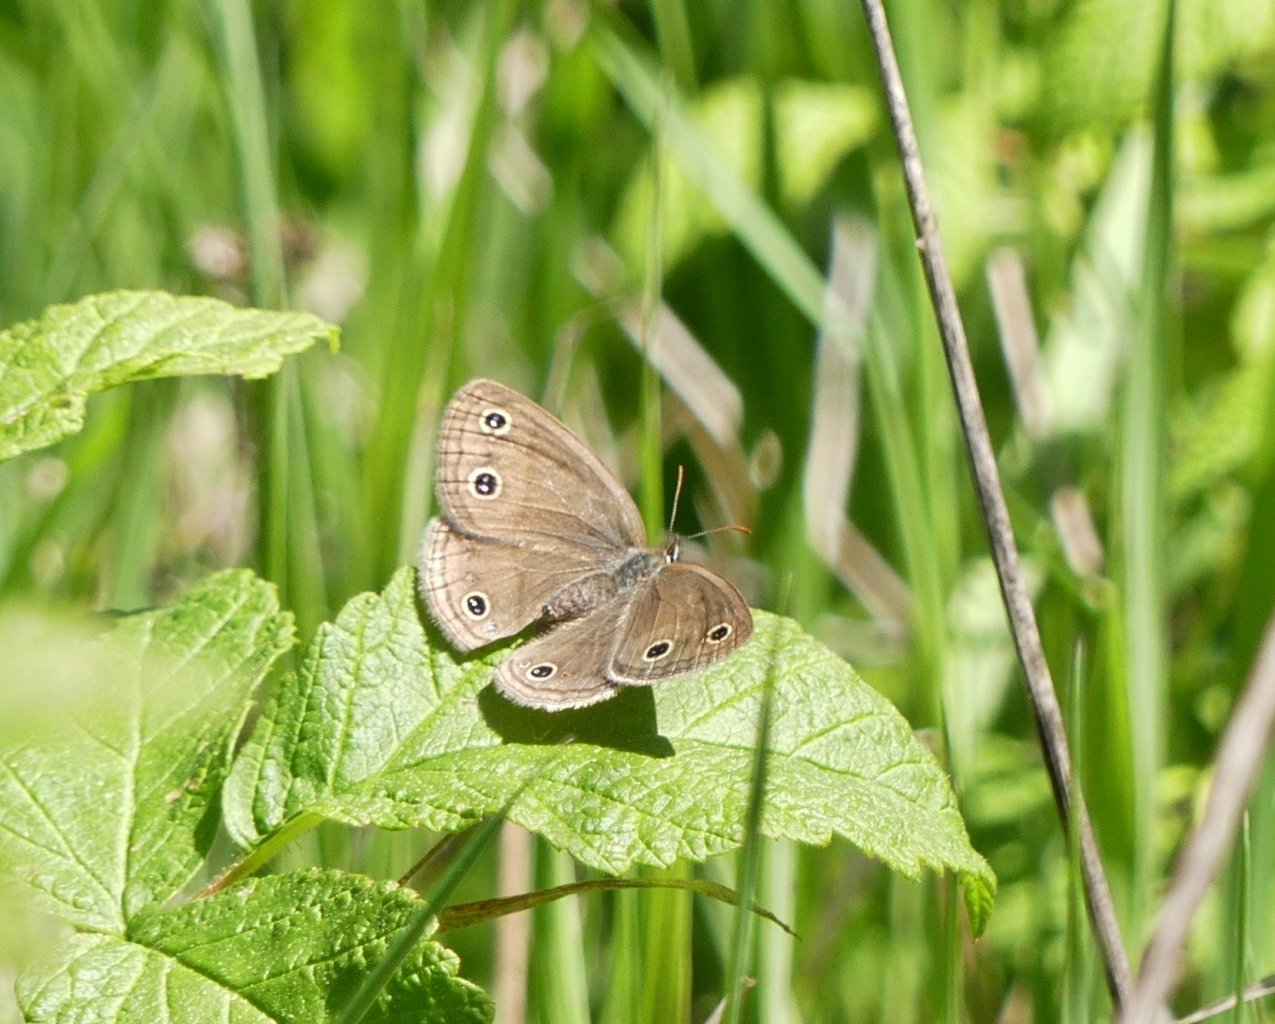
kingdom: Animalia
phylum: Arthropoda
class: Insecta
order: Lepidoptera
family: Nymphalidae
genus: Euptychia
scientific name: Euptychia cymela
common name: Little Wood Satyr
